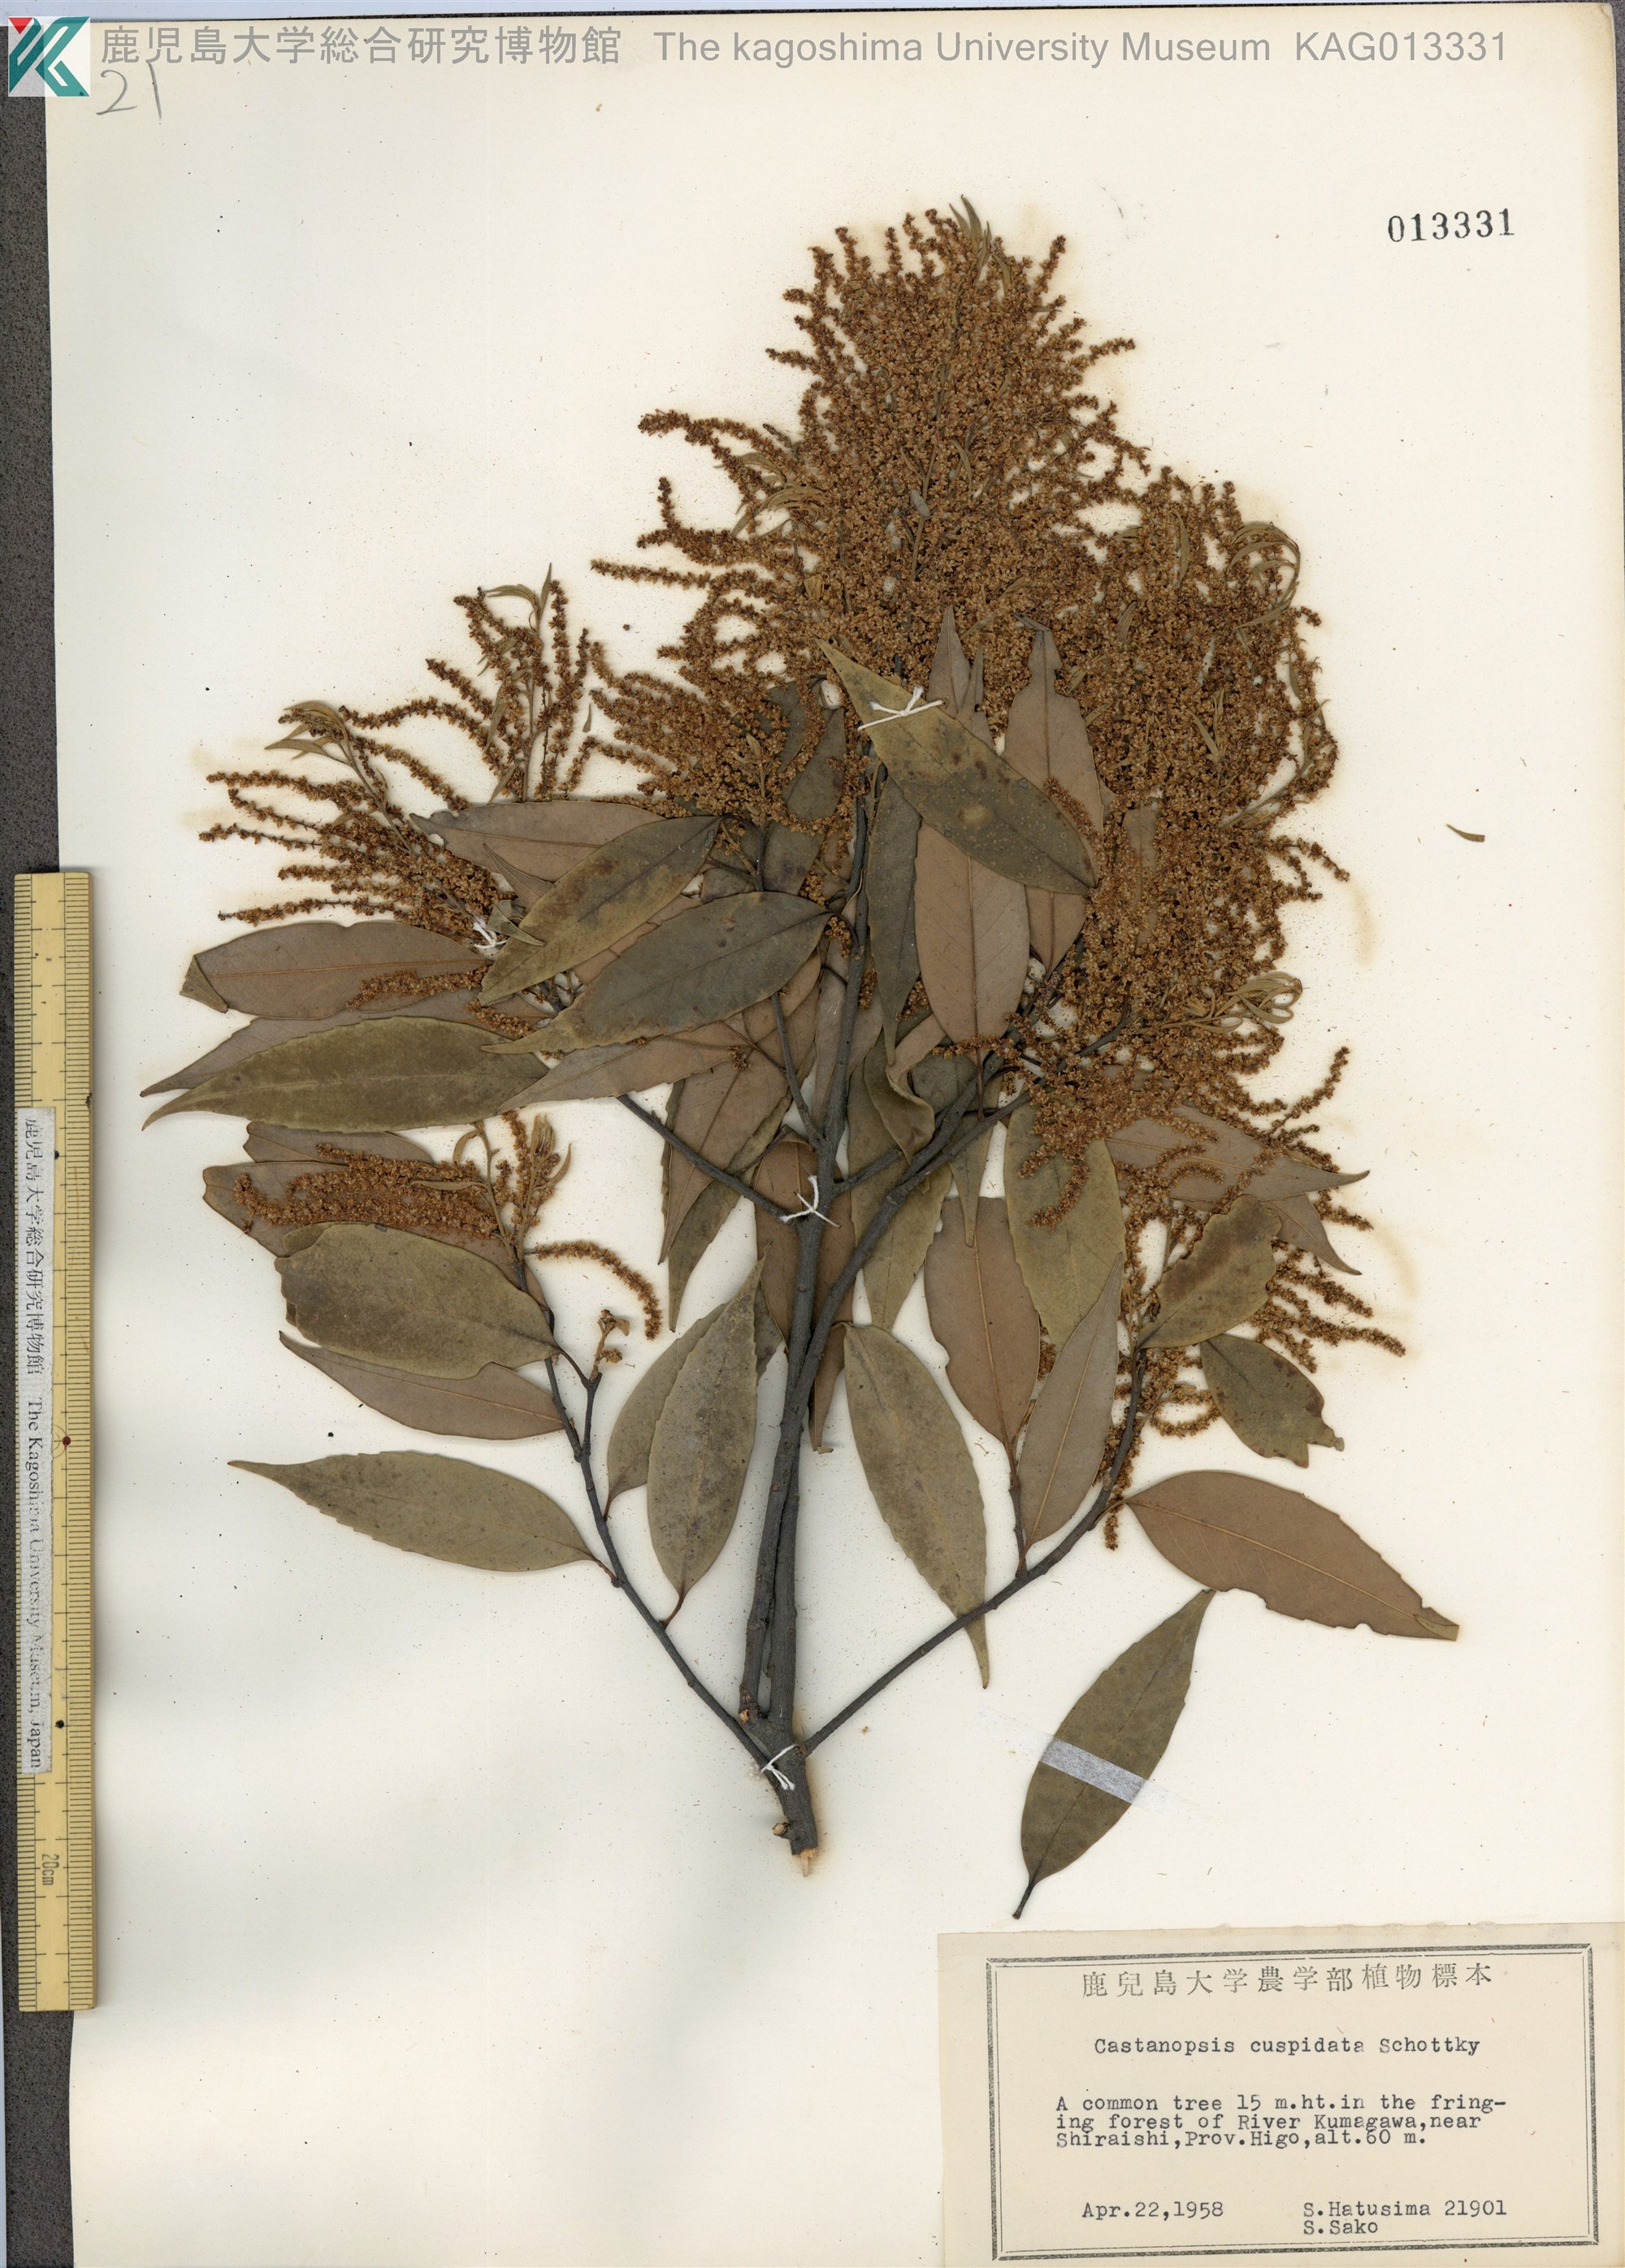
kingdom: Plantae
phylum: Tracheophyta
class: Magnoliopsida
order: Fagales
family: Fagaceae
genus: Castanopsis
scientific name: Castanopsis cuspidata
